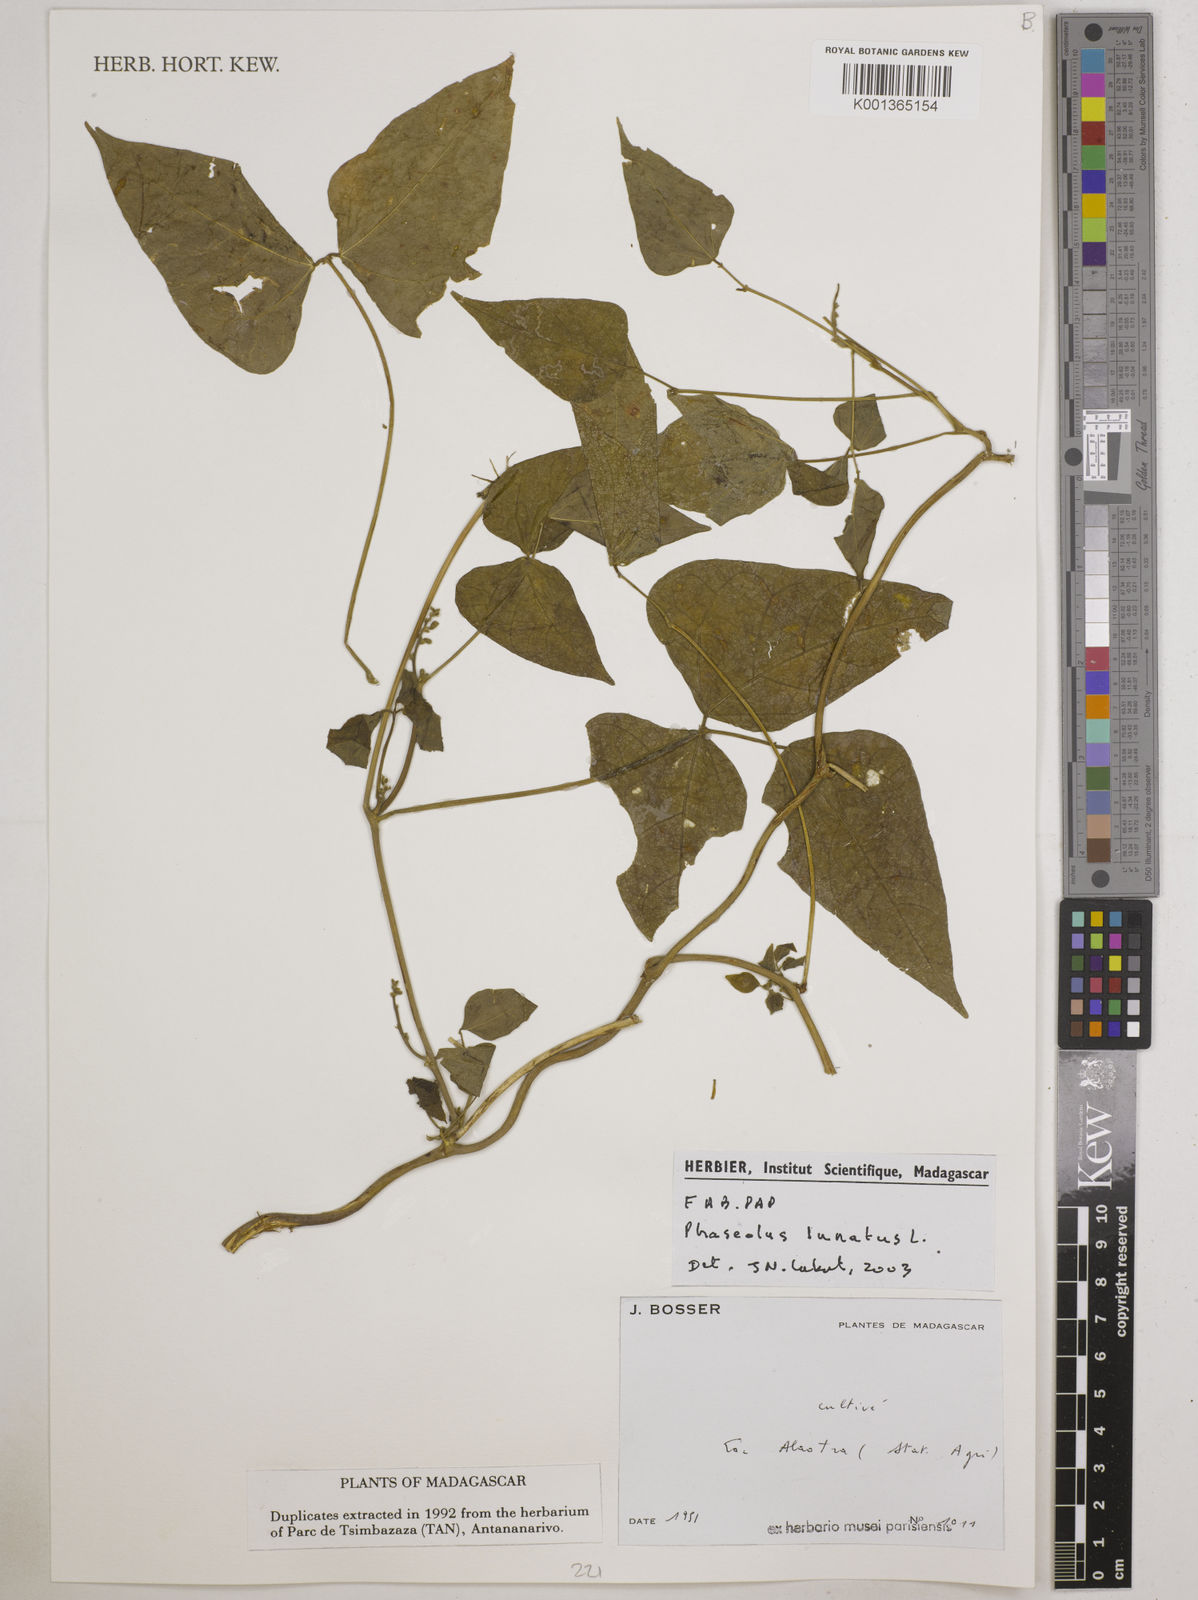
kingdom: Plantae
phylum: Tracheophyta
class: Magnoliopsida
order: Fabales
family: Fabaceae
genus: Phaseolus
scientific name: Phaseolus vulgaris
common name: Bean
